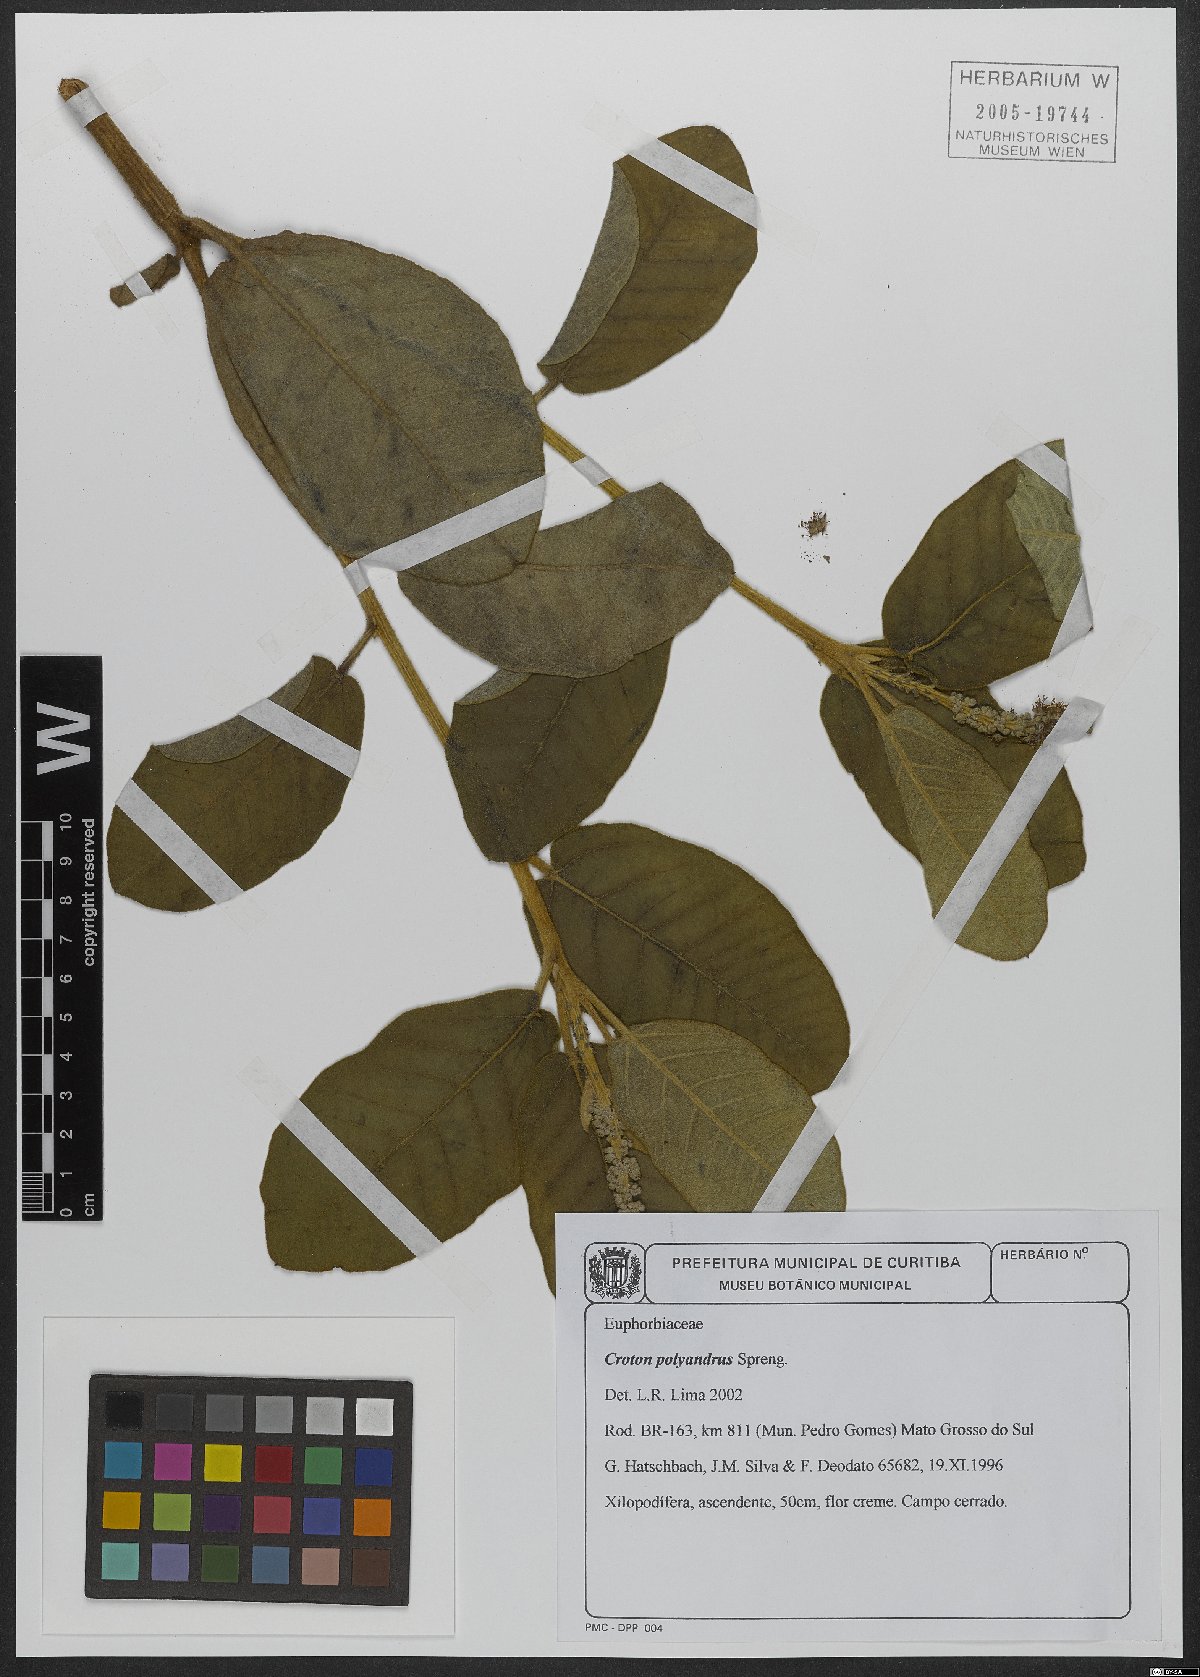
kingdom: Plantae
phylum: Tracheophyta
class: Magnoliopsida
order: Malpighiales
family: Euphorbiaceae
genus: Croton
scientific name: Croton polyandrus
